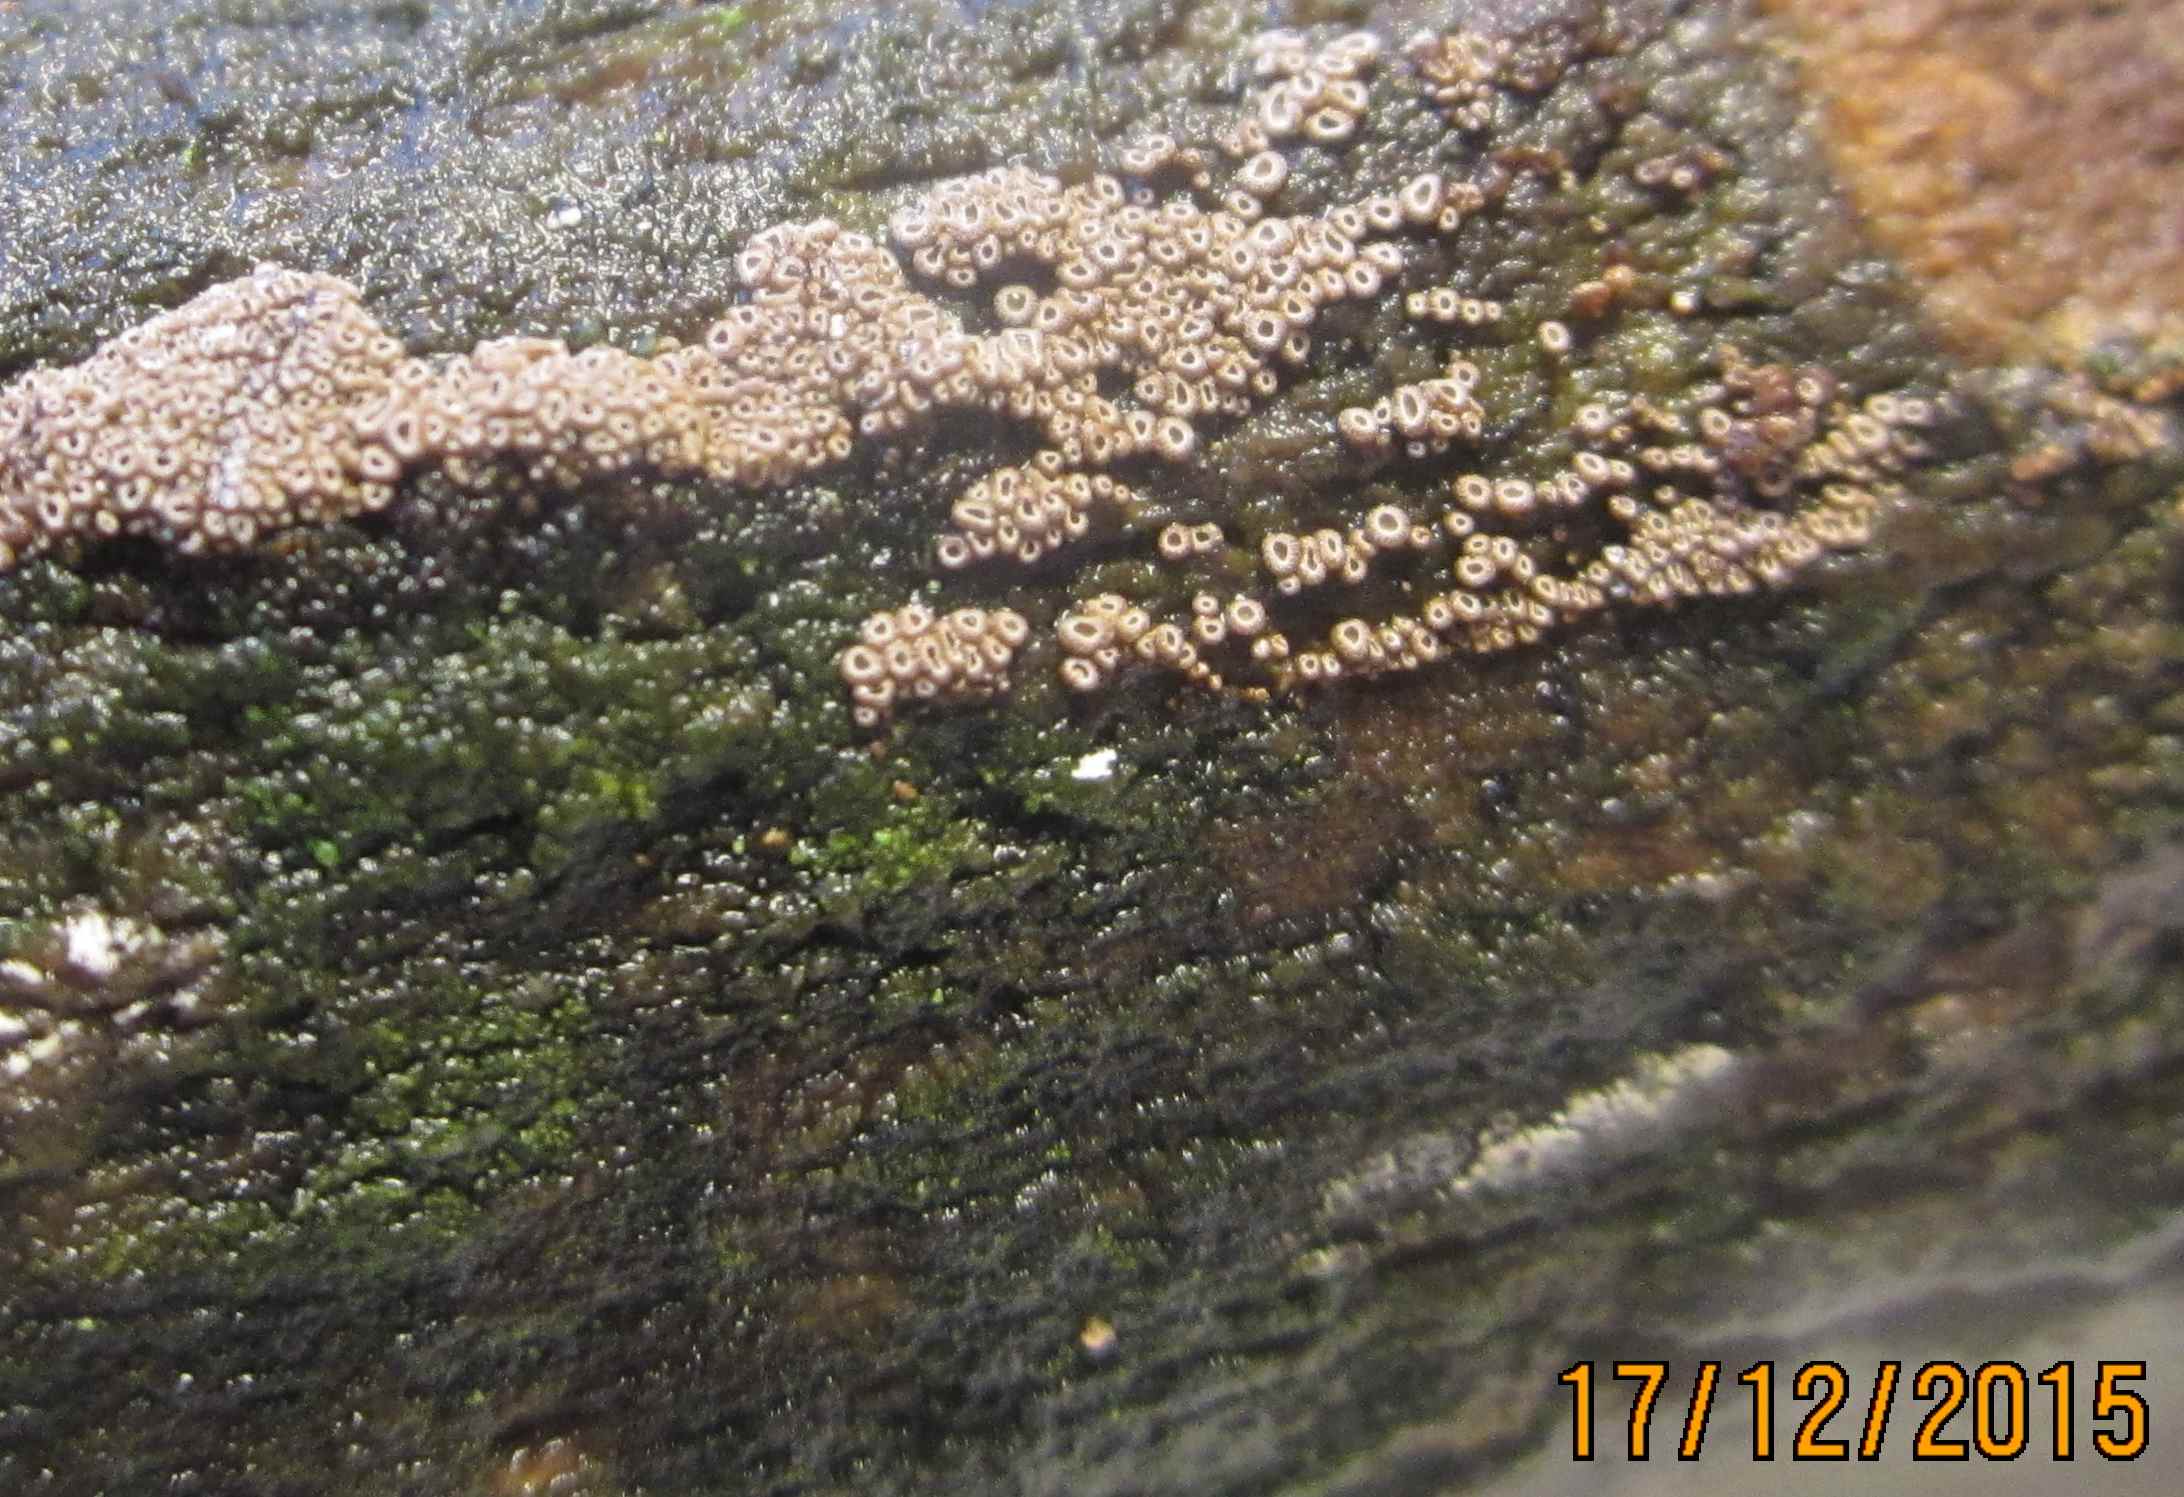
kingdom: Fungi
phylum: Basidiomycota
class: Agaricomycetes
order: Agaricales
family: Niaceae
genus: Merismodes
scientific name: Merismodes anomala
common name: almindelig læderskål
